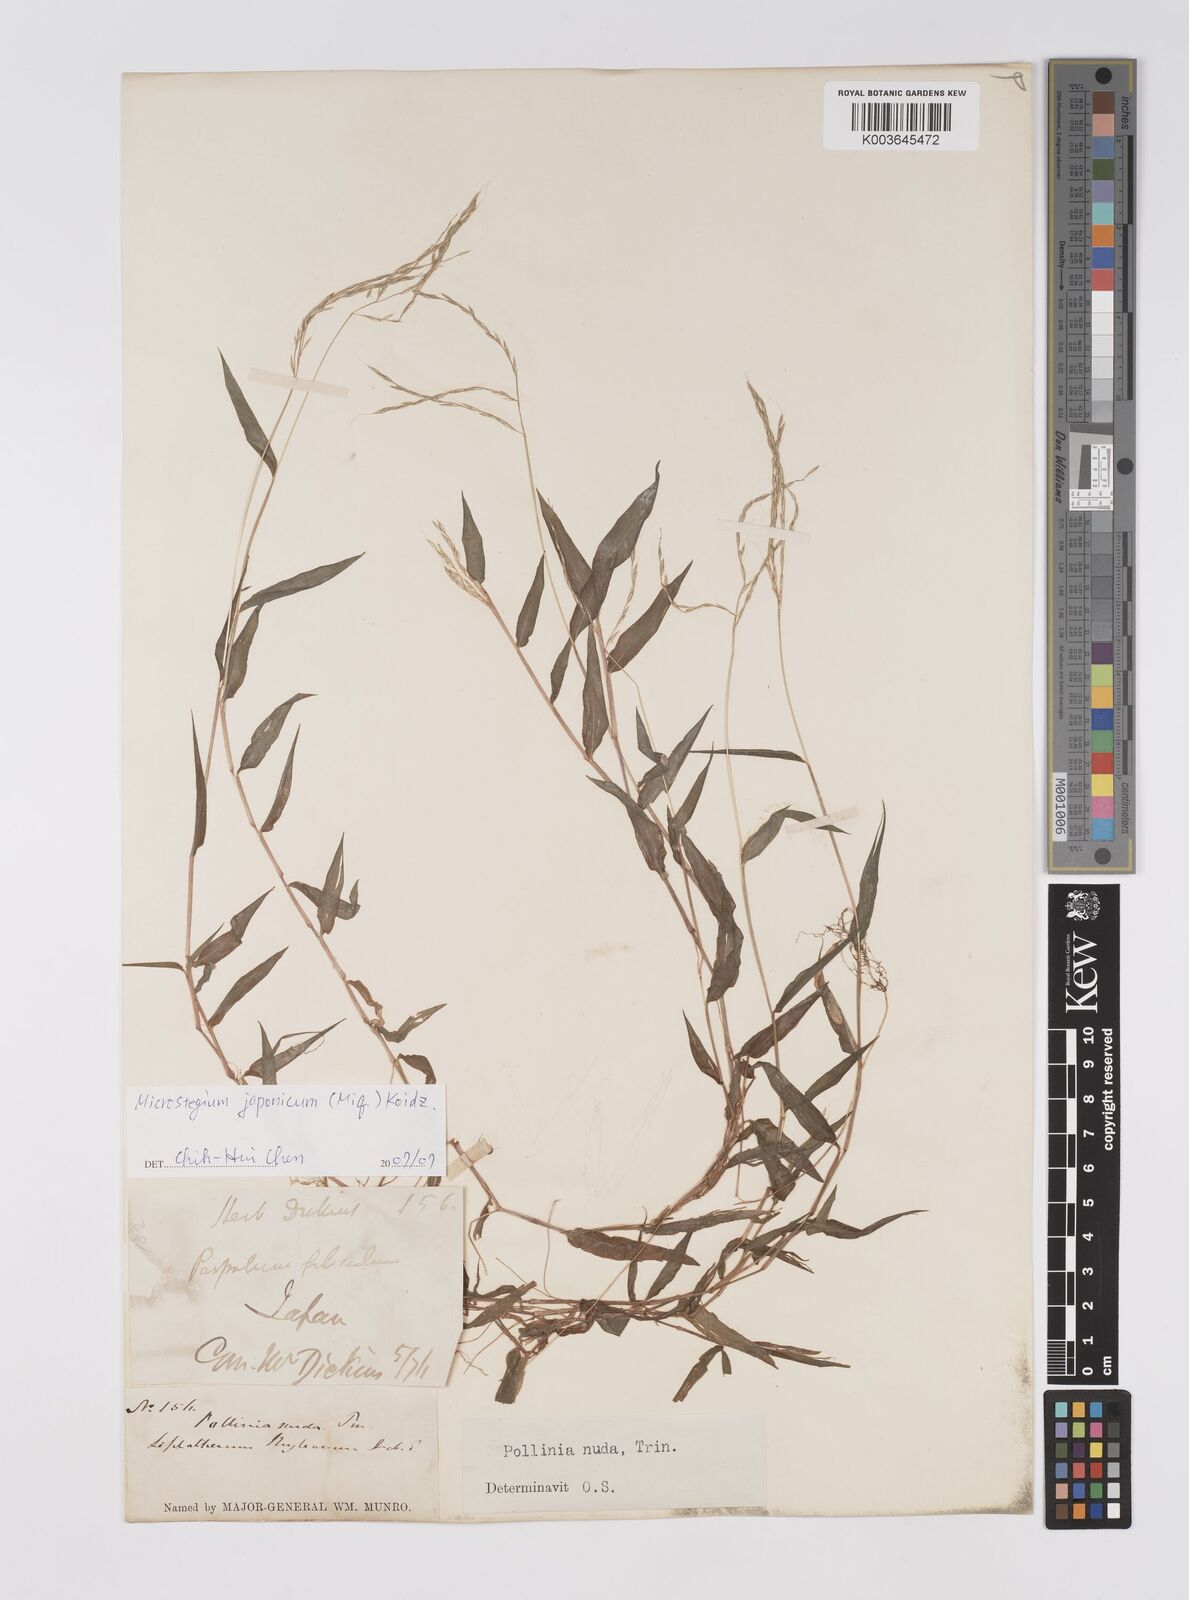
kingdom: Plantae
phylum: Tracheophyta
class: Liliopsida
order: Poales
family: Poaceae
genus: Microstegium
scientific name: Microstegium japonicum
